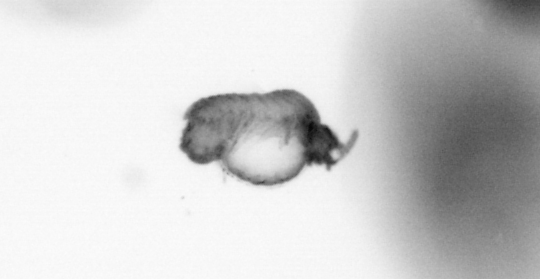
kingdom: Animalia
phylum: Annelida
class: Polychaeta
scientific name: Polychaeta
